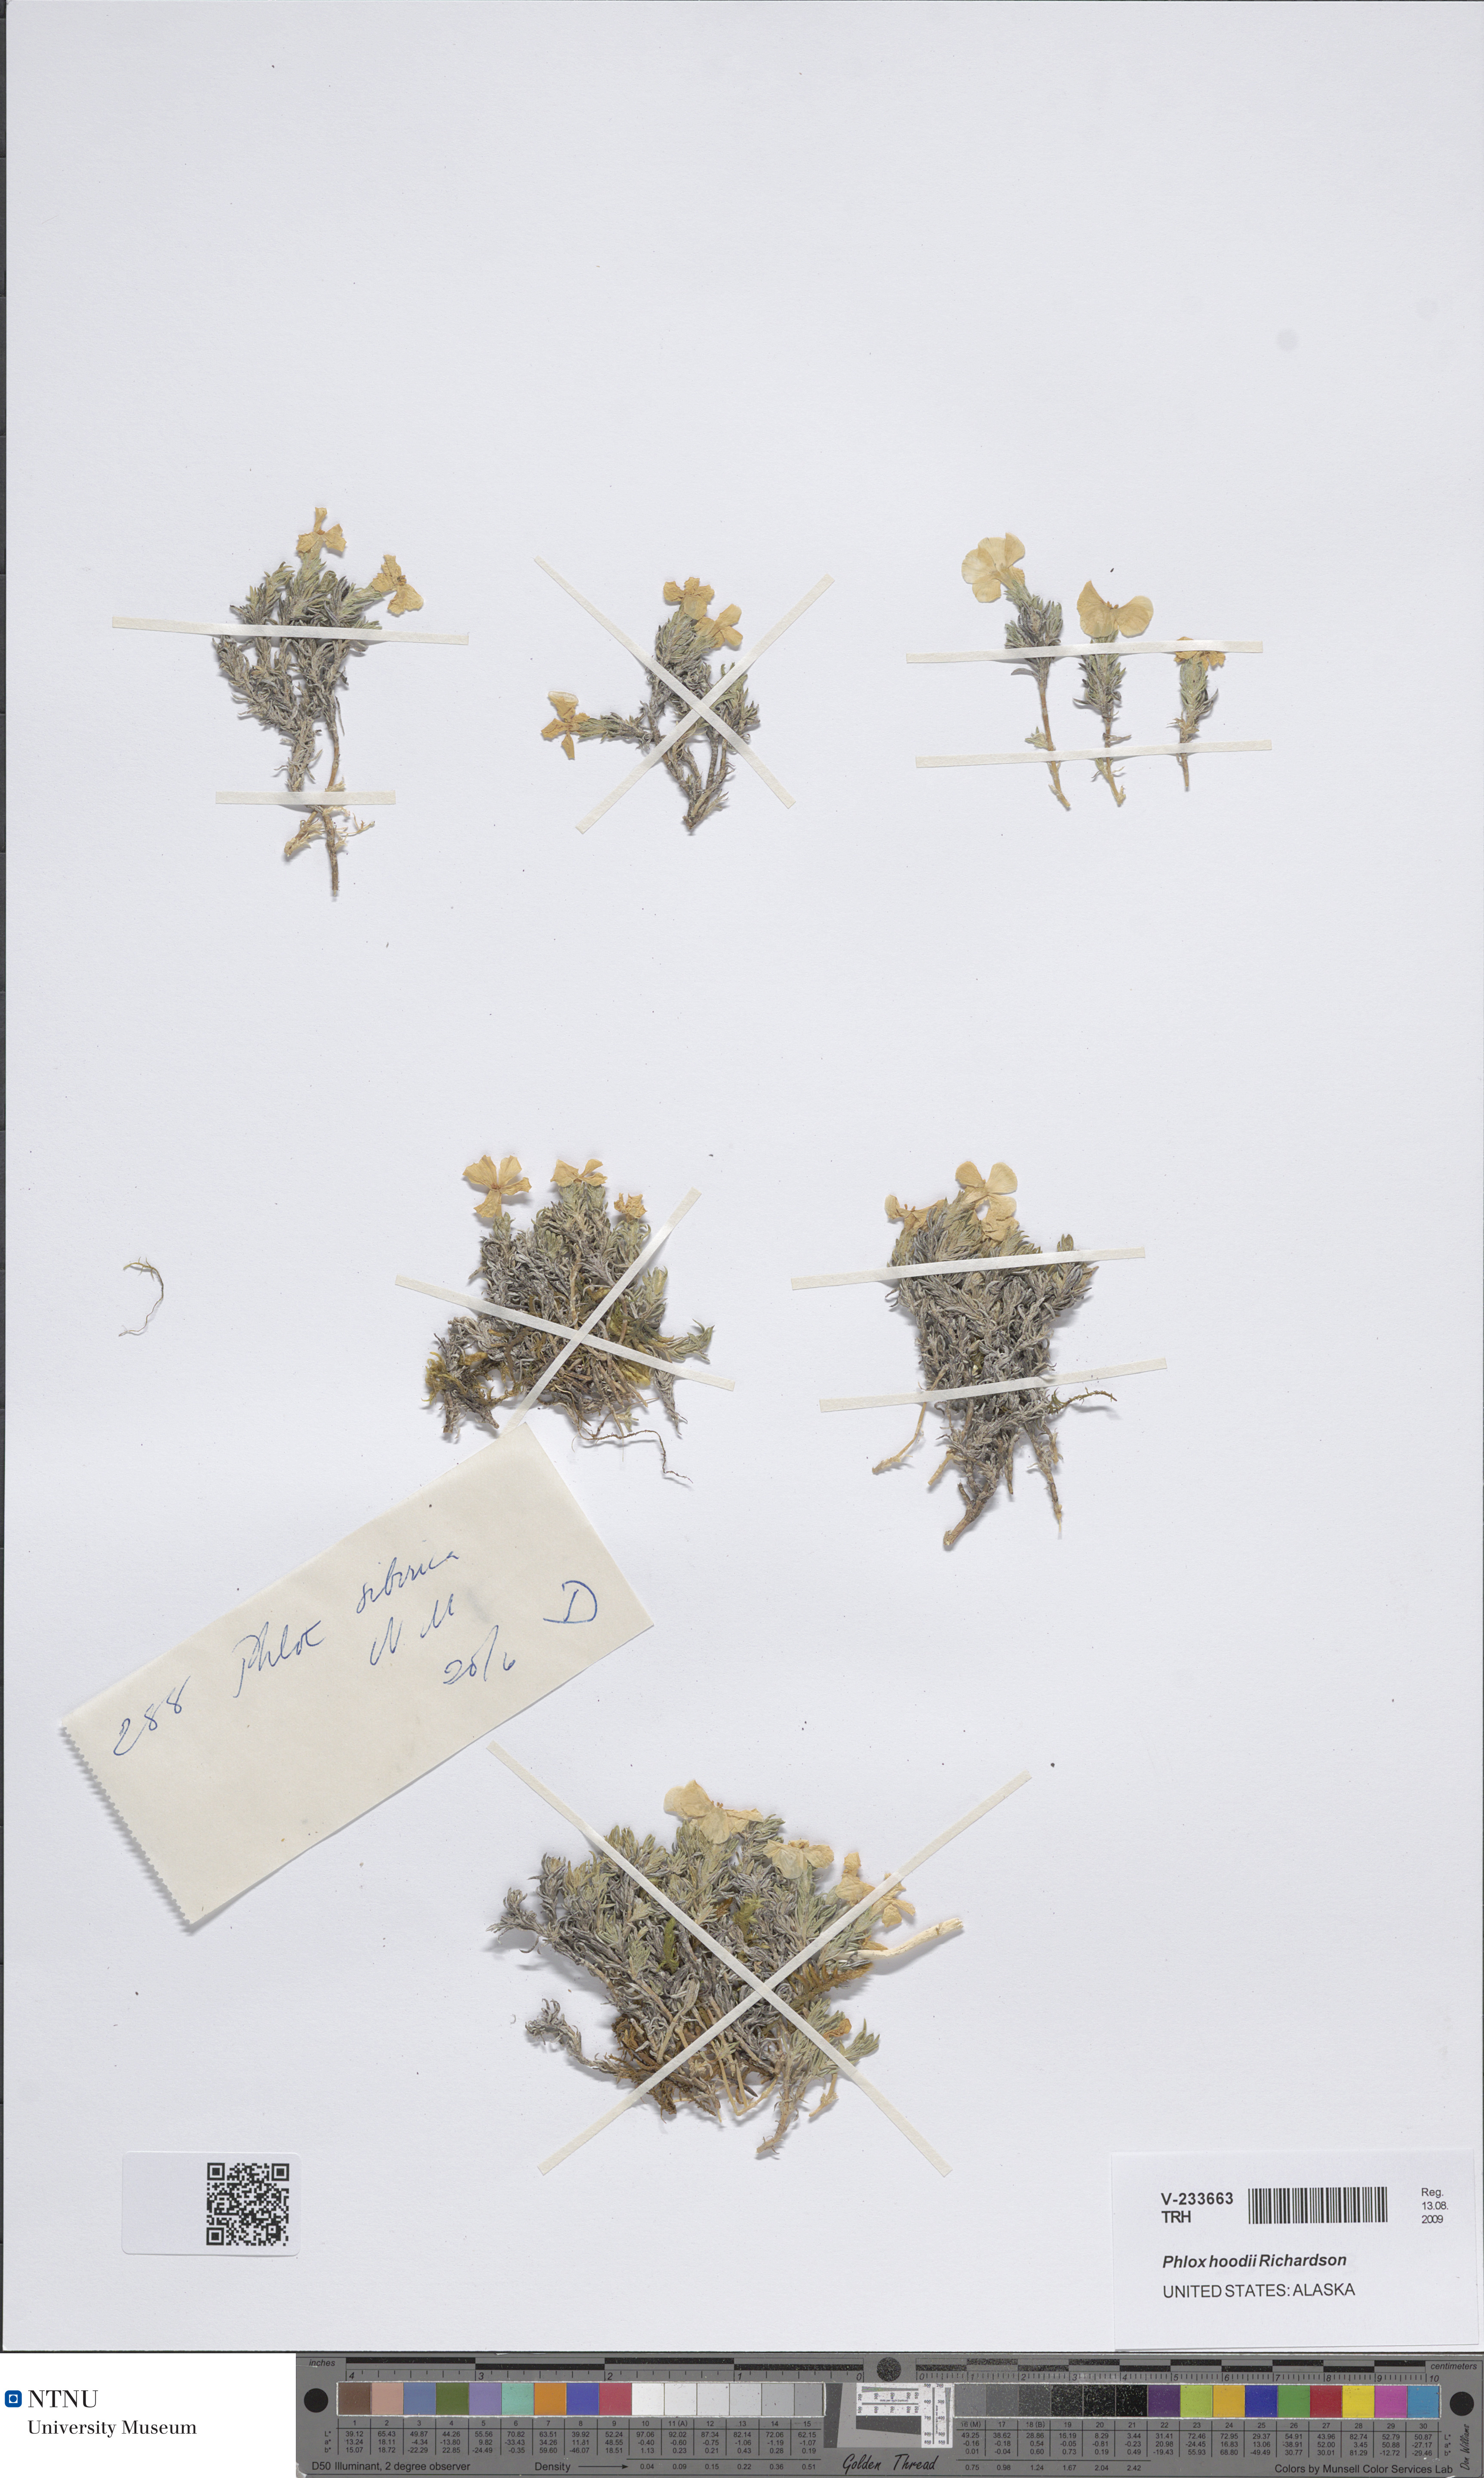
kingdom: Plantae
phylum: Tracheophyta
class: Magnoliopsida
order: Ericales
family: Polemoniaceae
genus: Phlox
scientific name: Phlox hoodii
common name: Moss phlox
